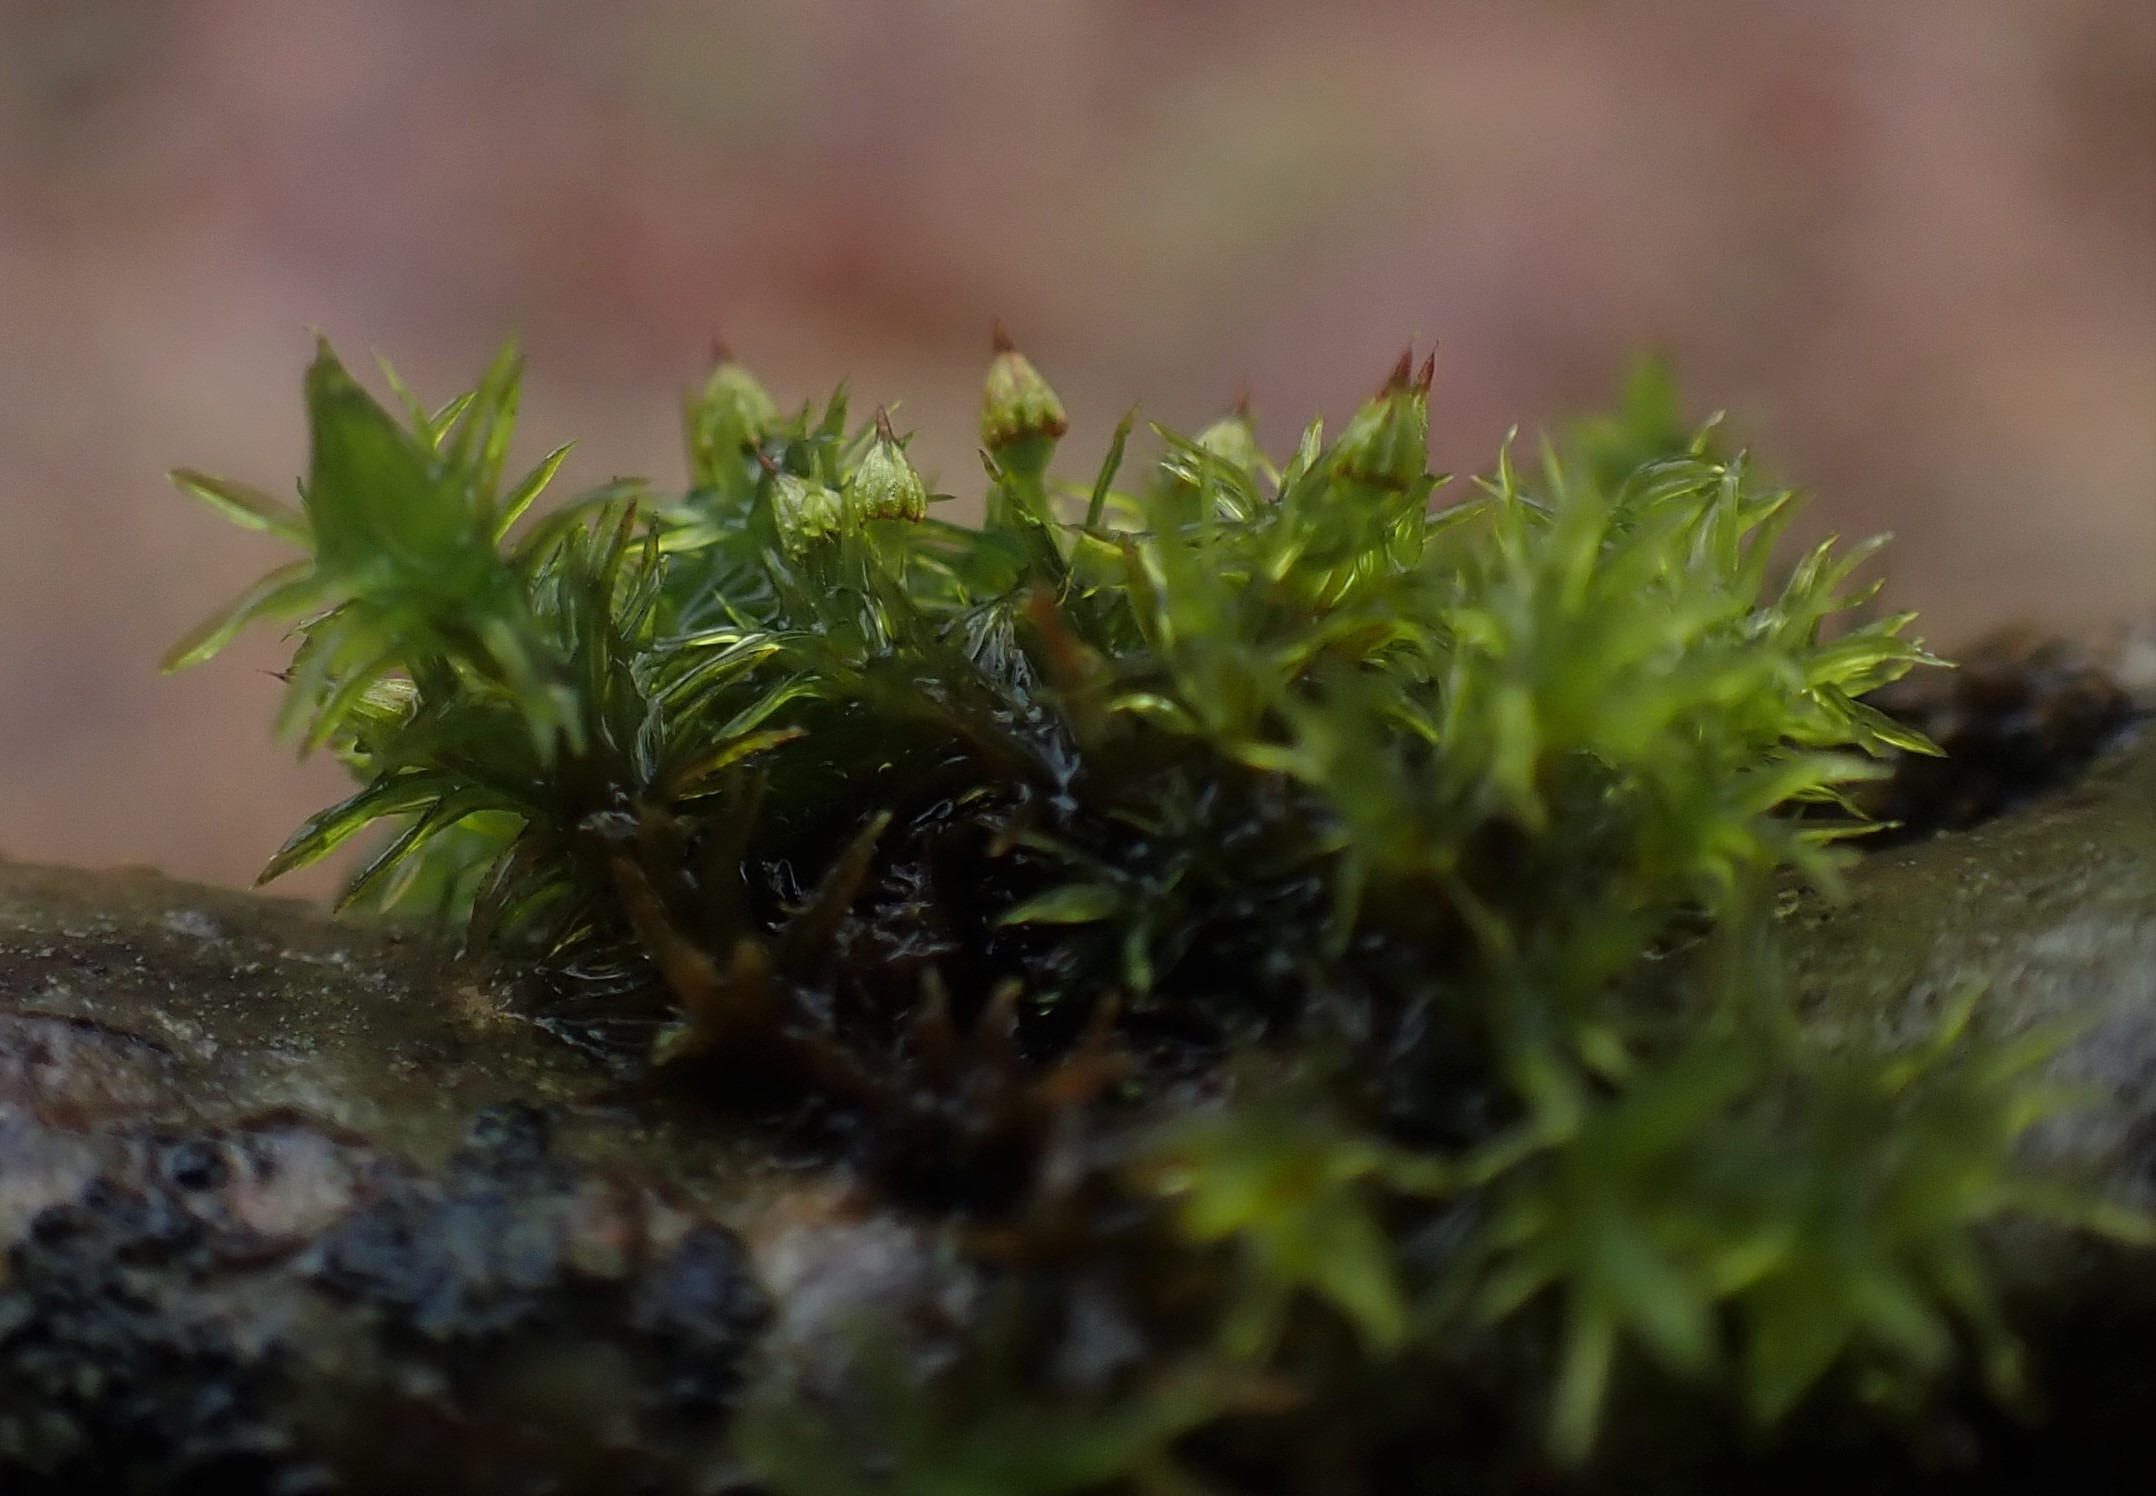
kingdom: Plantae
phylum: Bryophyta
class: Bryopsida
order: Orthotrichales
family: Orthotrichaceae
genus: Orthotrichum
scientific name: Orthotrichum pulchellum
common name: Smuk furehætte
